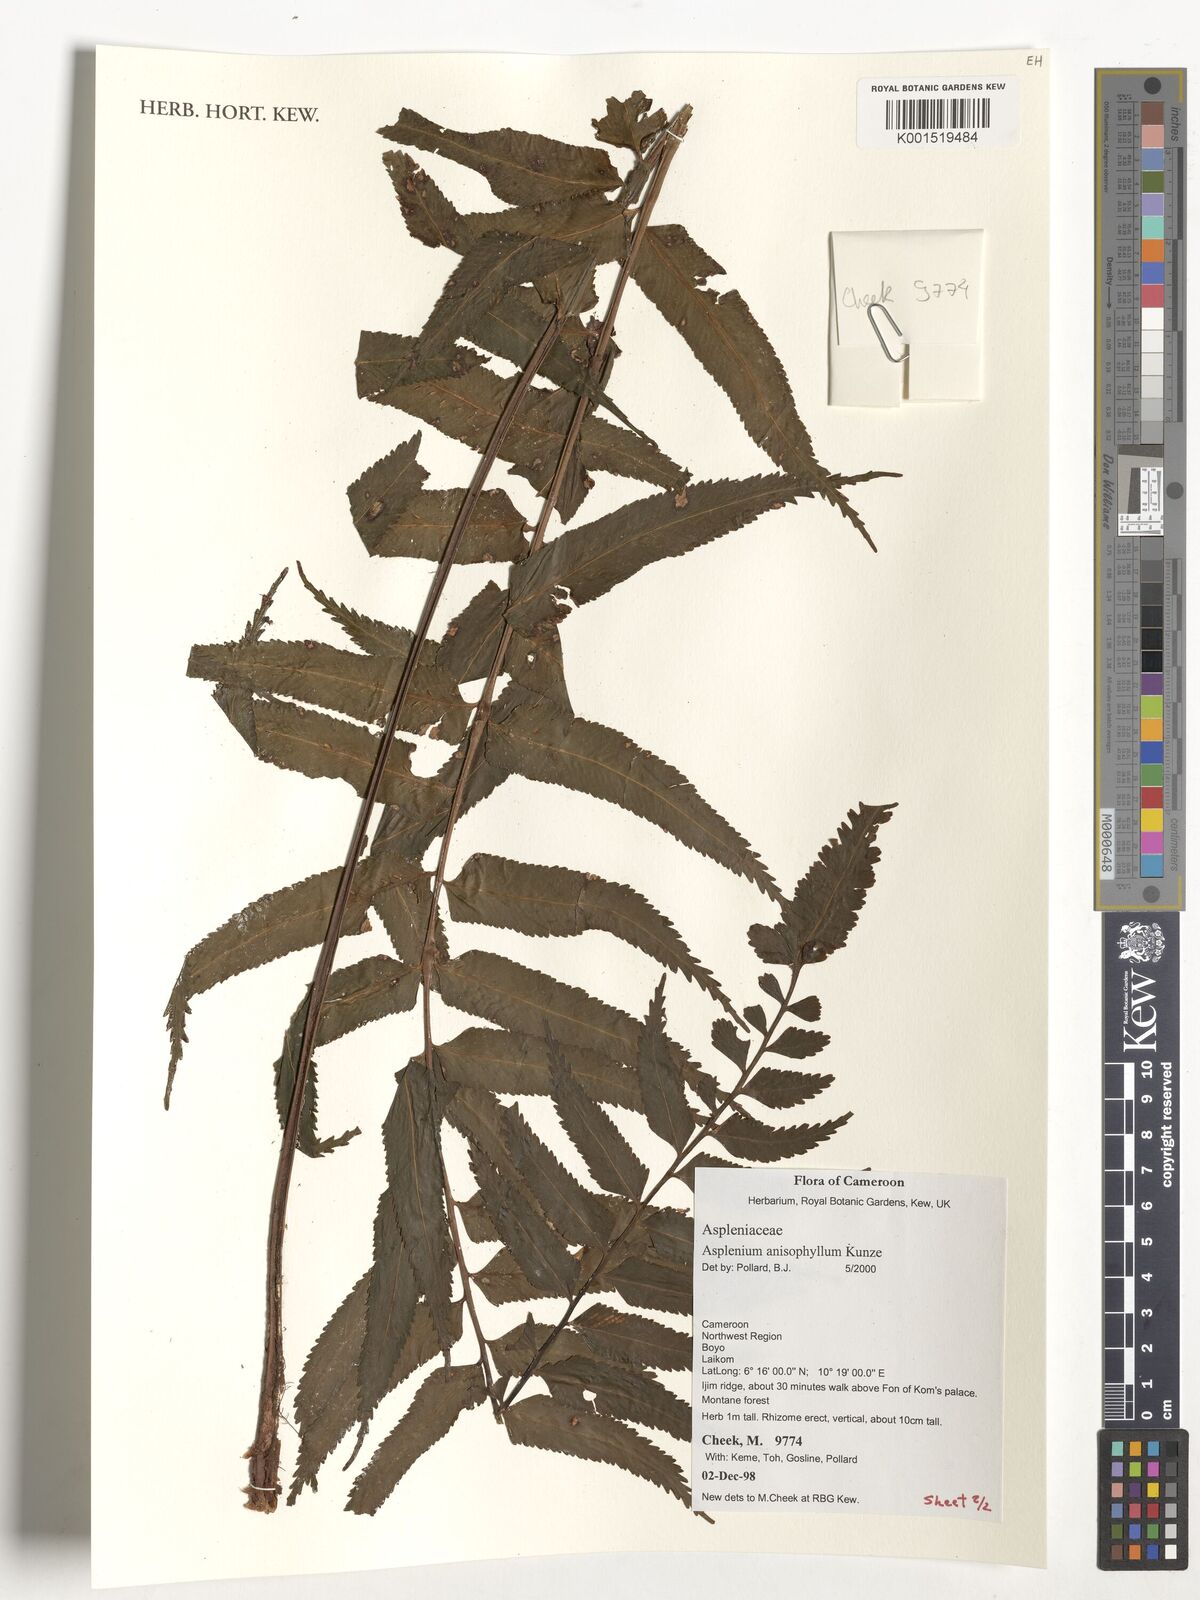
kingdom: Plantae
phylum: Tracheophyta
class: Polypodiopsida
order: Polypodiales
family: Aspleniaceae
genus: Asplenium
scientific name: Asplenium anisophyllum
